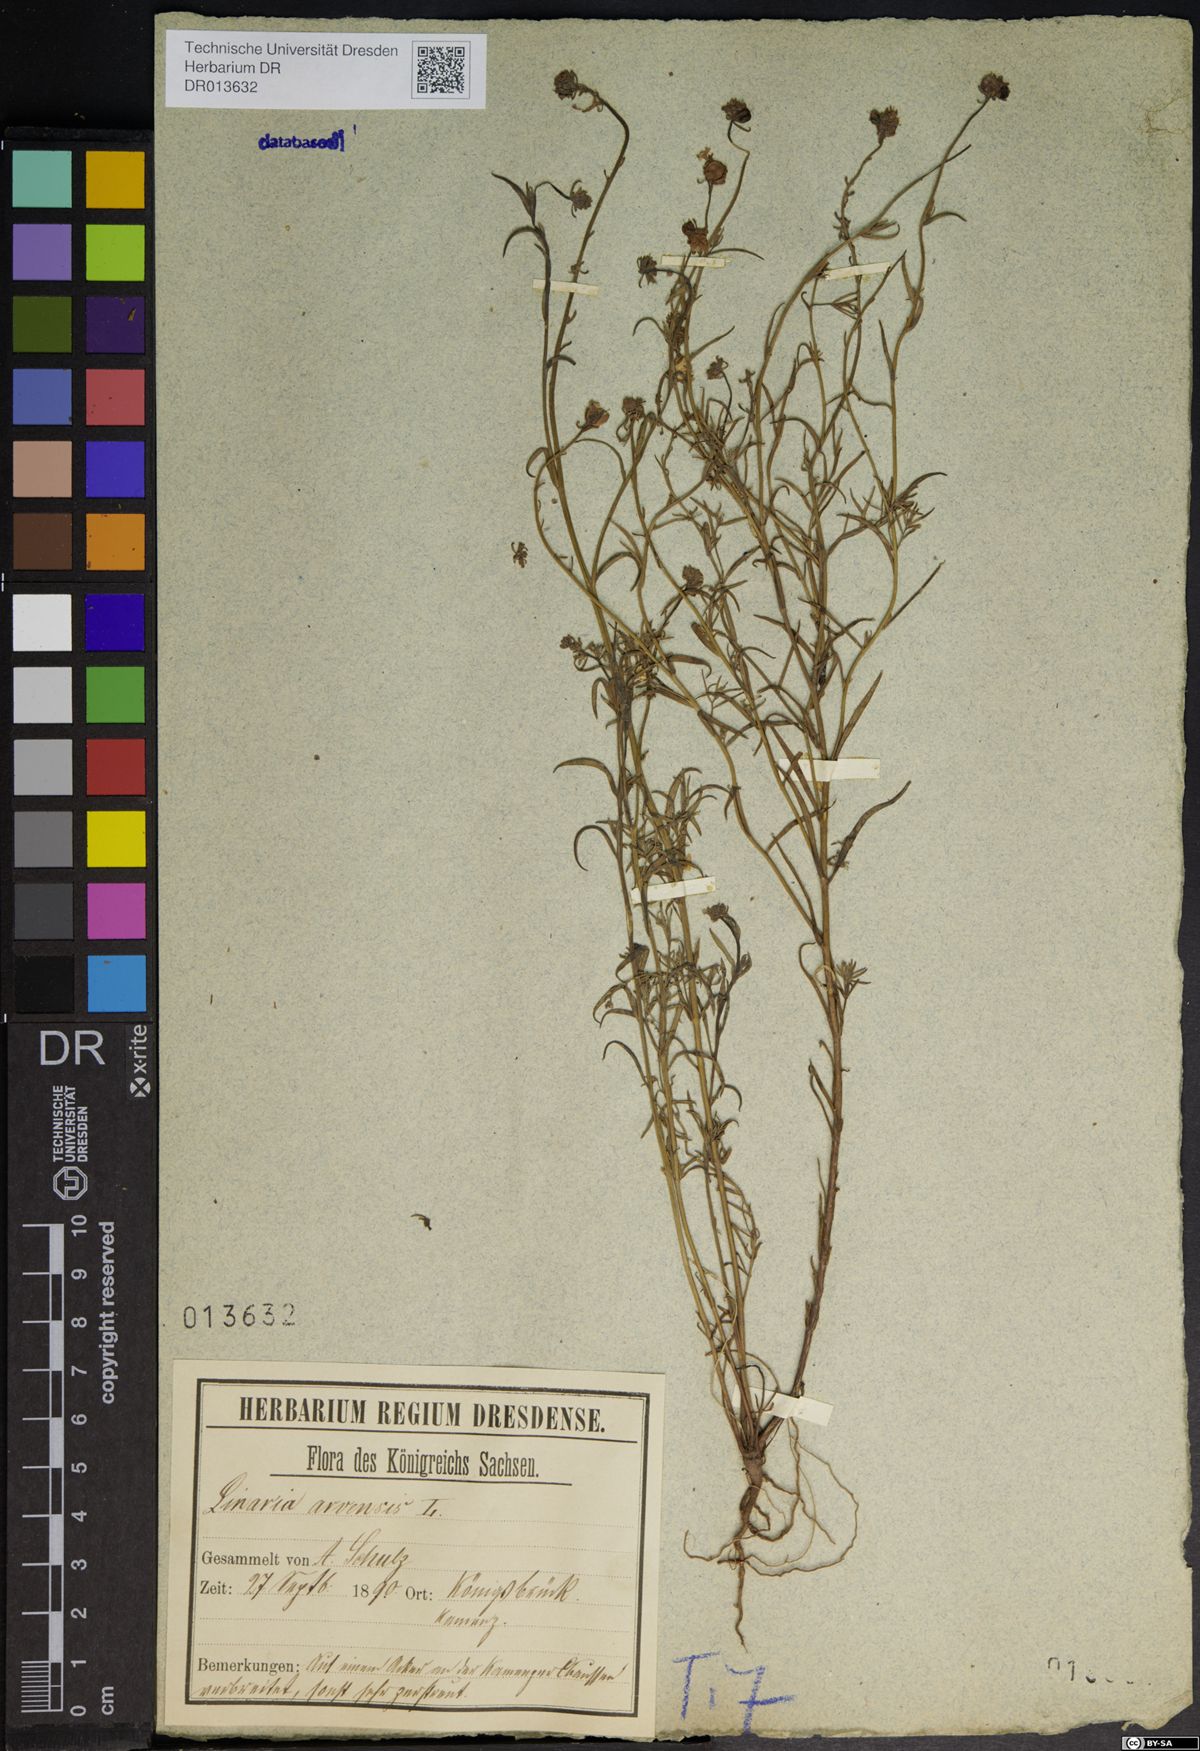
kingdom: Plantae
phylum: Tracheophyta
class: Magnoliopsida
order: Lamiales
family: Plantaginaceae
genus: Linaria
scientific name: Linaria arvensis
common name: Corn toadflax
